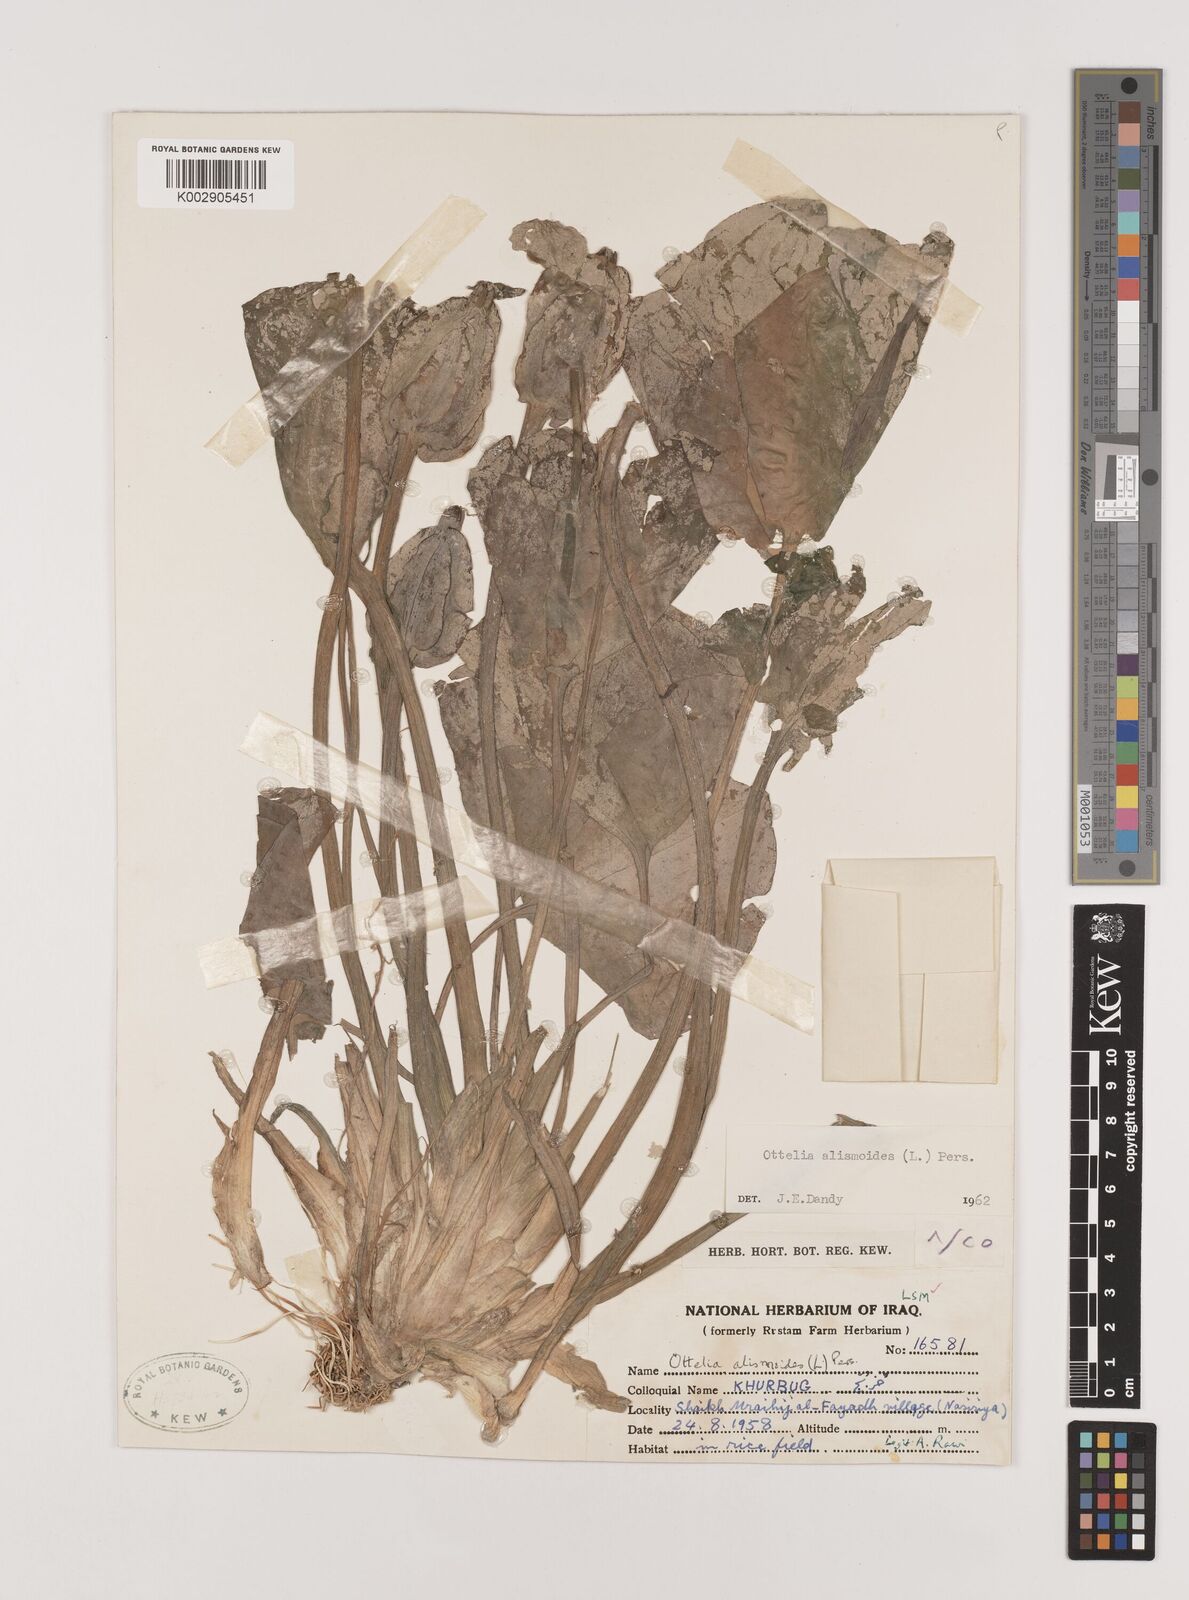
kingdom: Plantae
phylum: Tracheophyta
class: Liliopsida
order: Alismatales
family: Hydrocharitaceae
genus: Ottelia
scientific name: Ottelia alismoides
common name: Duck-lettuce
